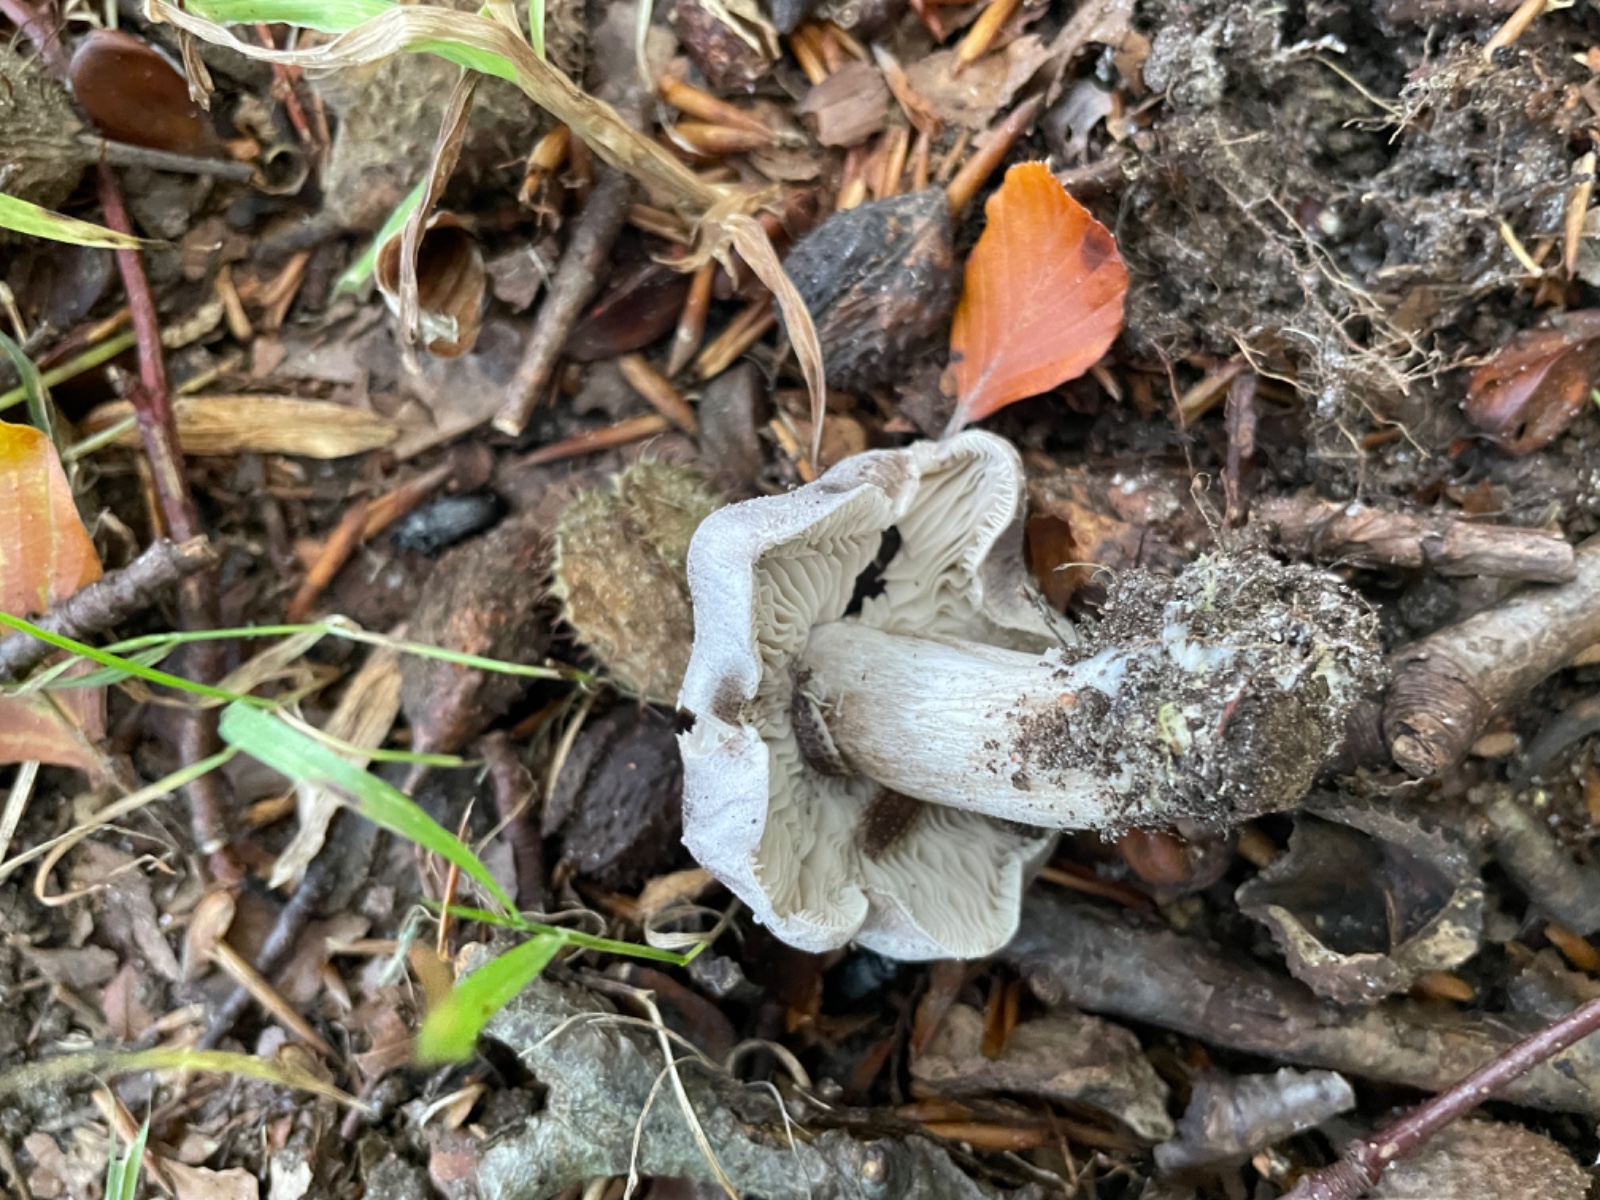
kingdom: Fungi
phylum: Basidiomycota
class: Agaricomycetes
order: Agaricales
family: Tricholomataceae
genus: Tricholoma
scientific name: Tricholoma sciodes
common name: stribet ridderhat
